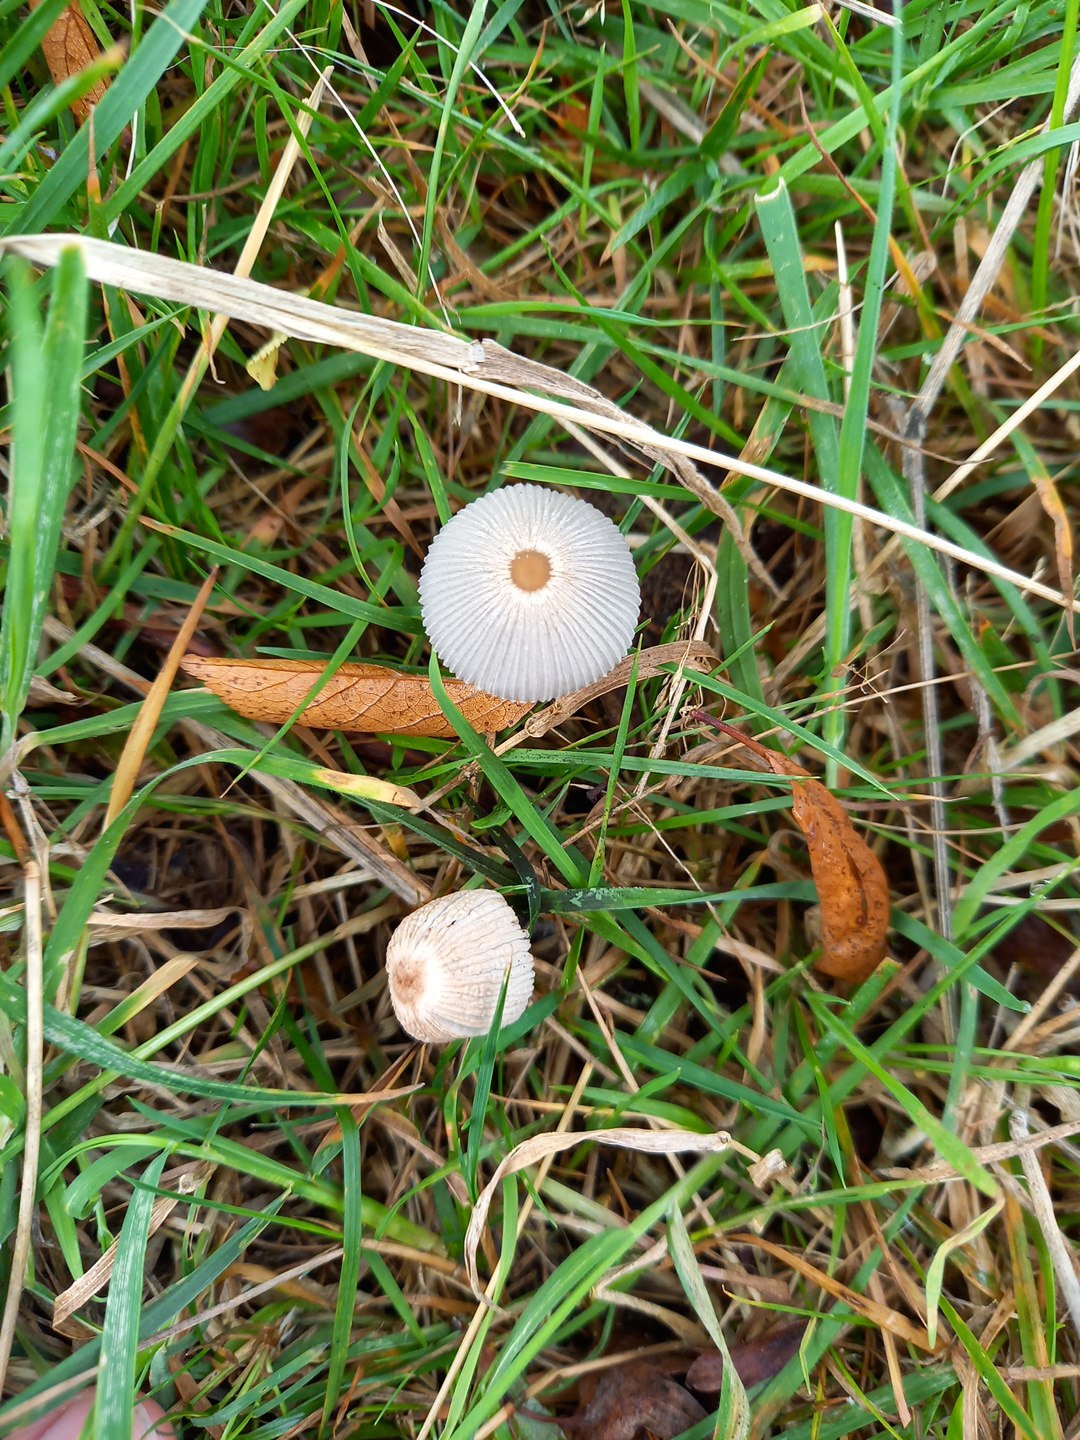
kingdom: Fungi
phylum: Basidiomycota
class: Agaricomycetes
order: Agaricales
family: Psathyrellaceae
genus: Parasola
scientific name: Parasola
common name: hjulhat
